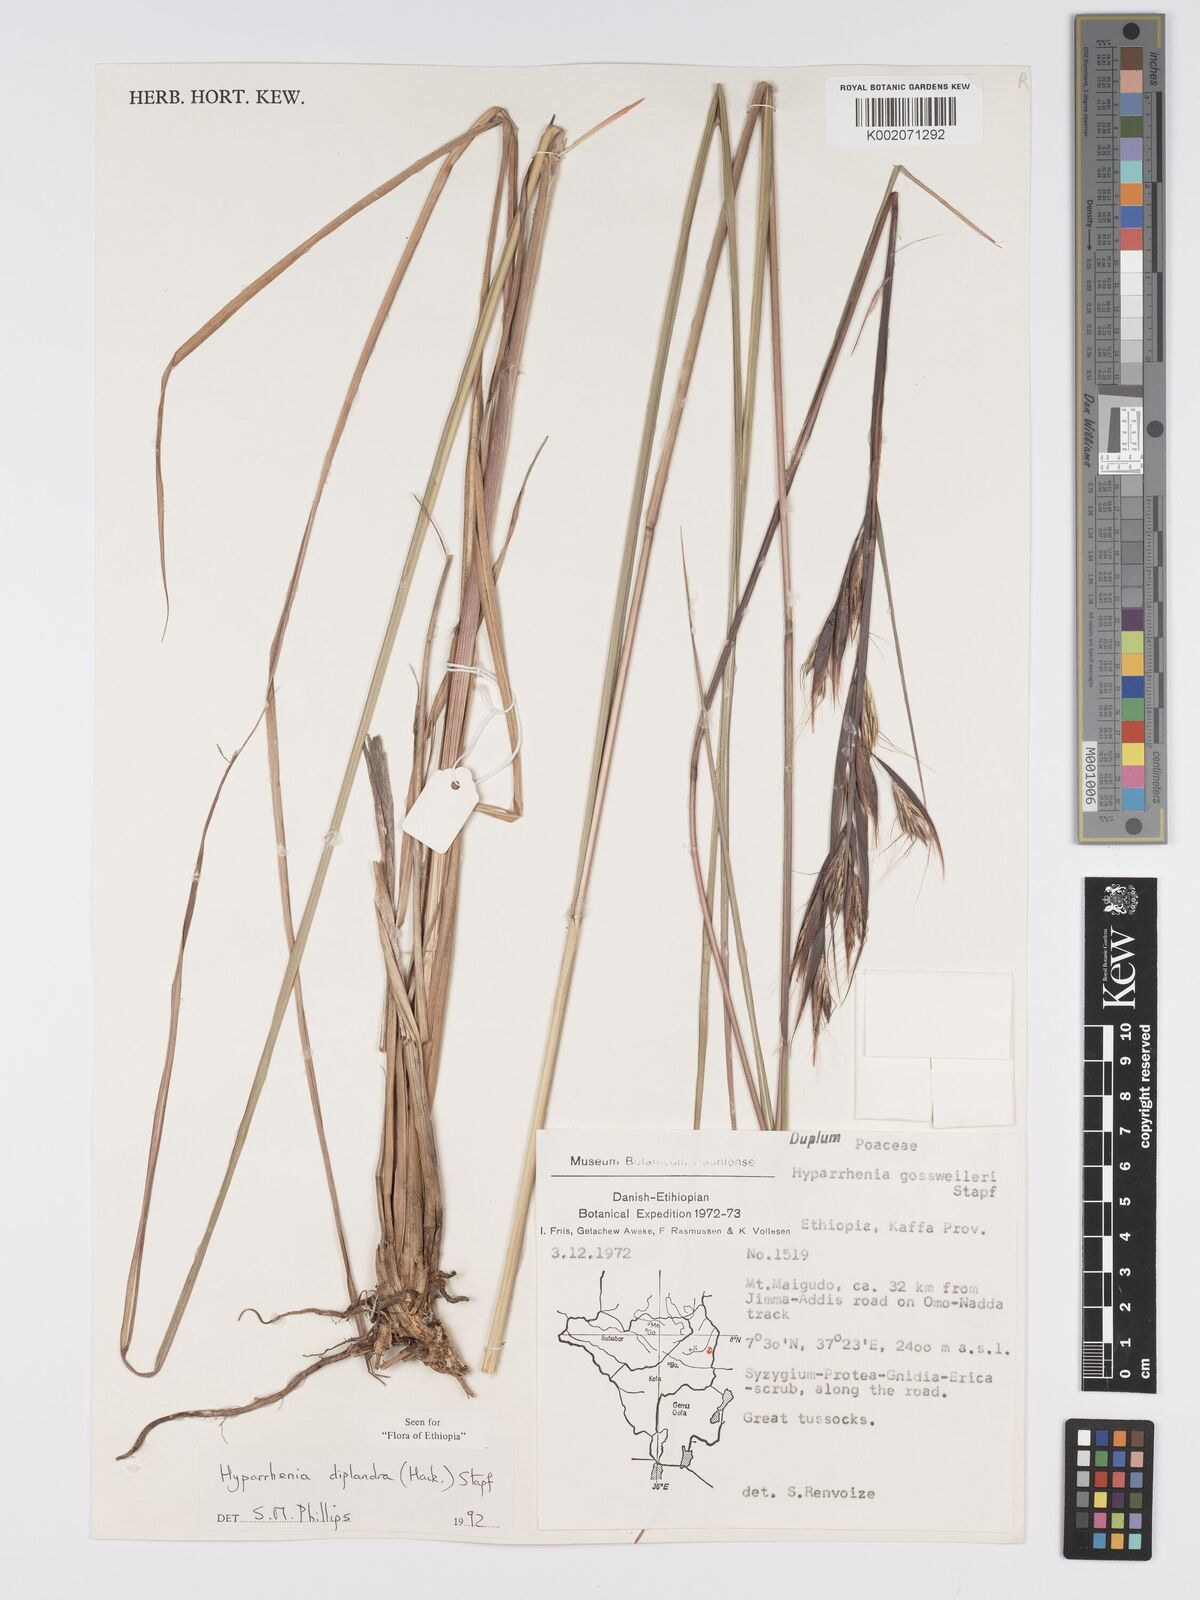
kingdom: Plantae
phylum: Tracheophyta
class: Liliopsida
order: Poales
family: Poaceae
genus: Hyparrhenia
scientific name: Hyparrhenia diplandra
